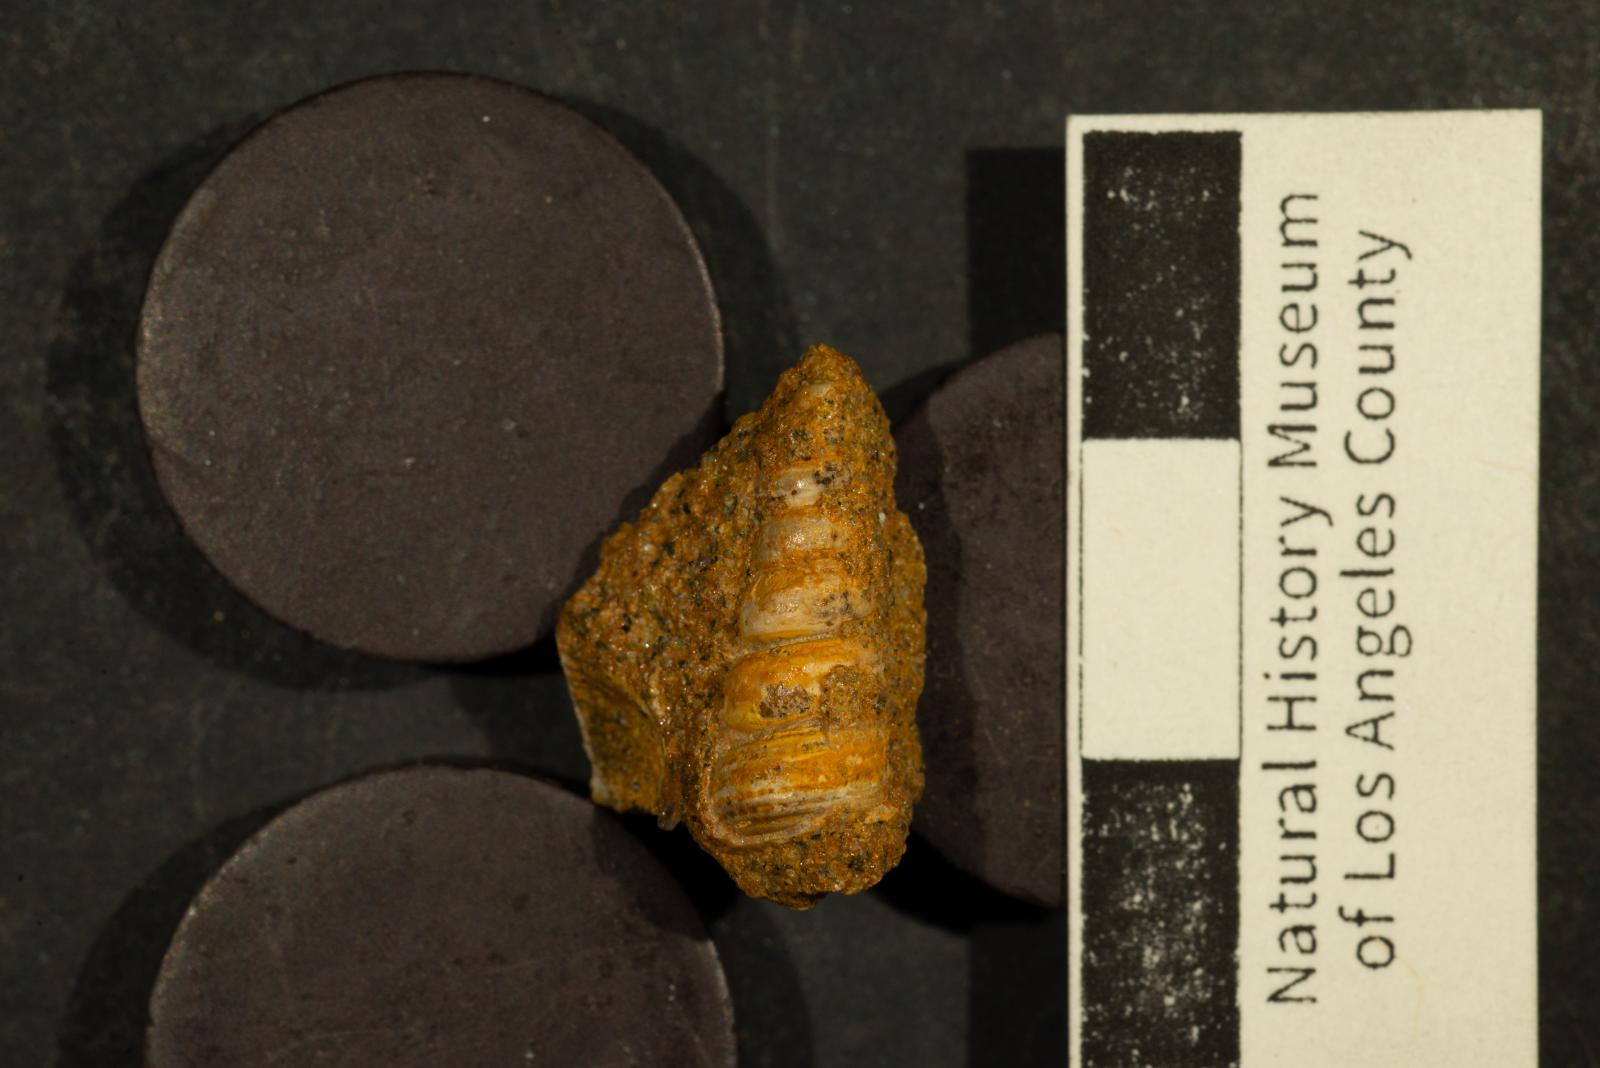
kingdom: Animalia
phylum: Mollusca
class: Gastropoda
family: Cerithiidae
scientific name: Cerithiidae
